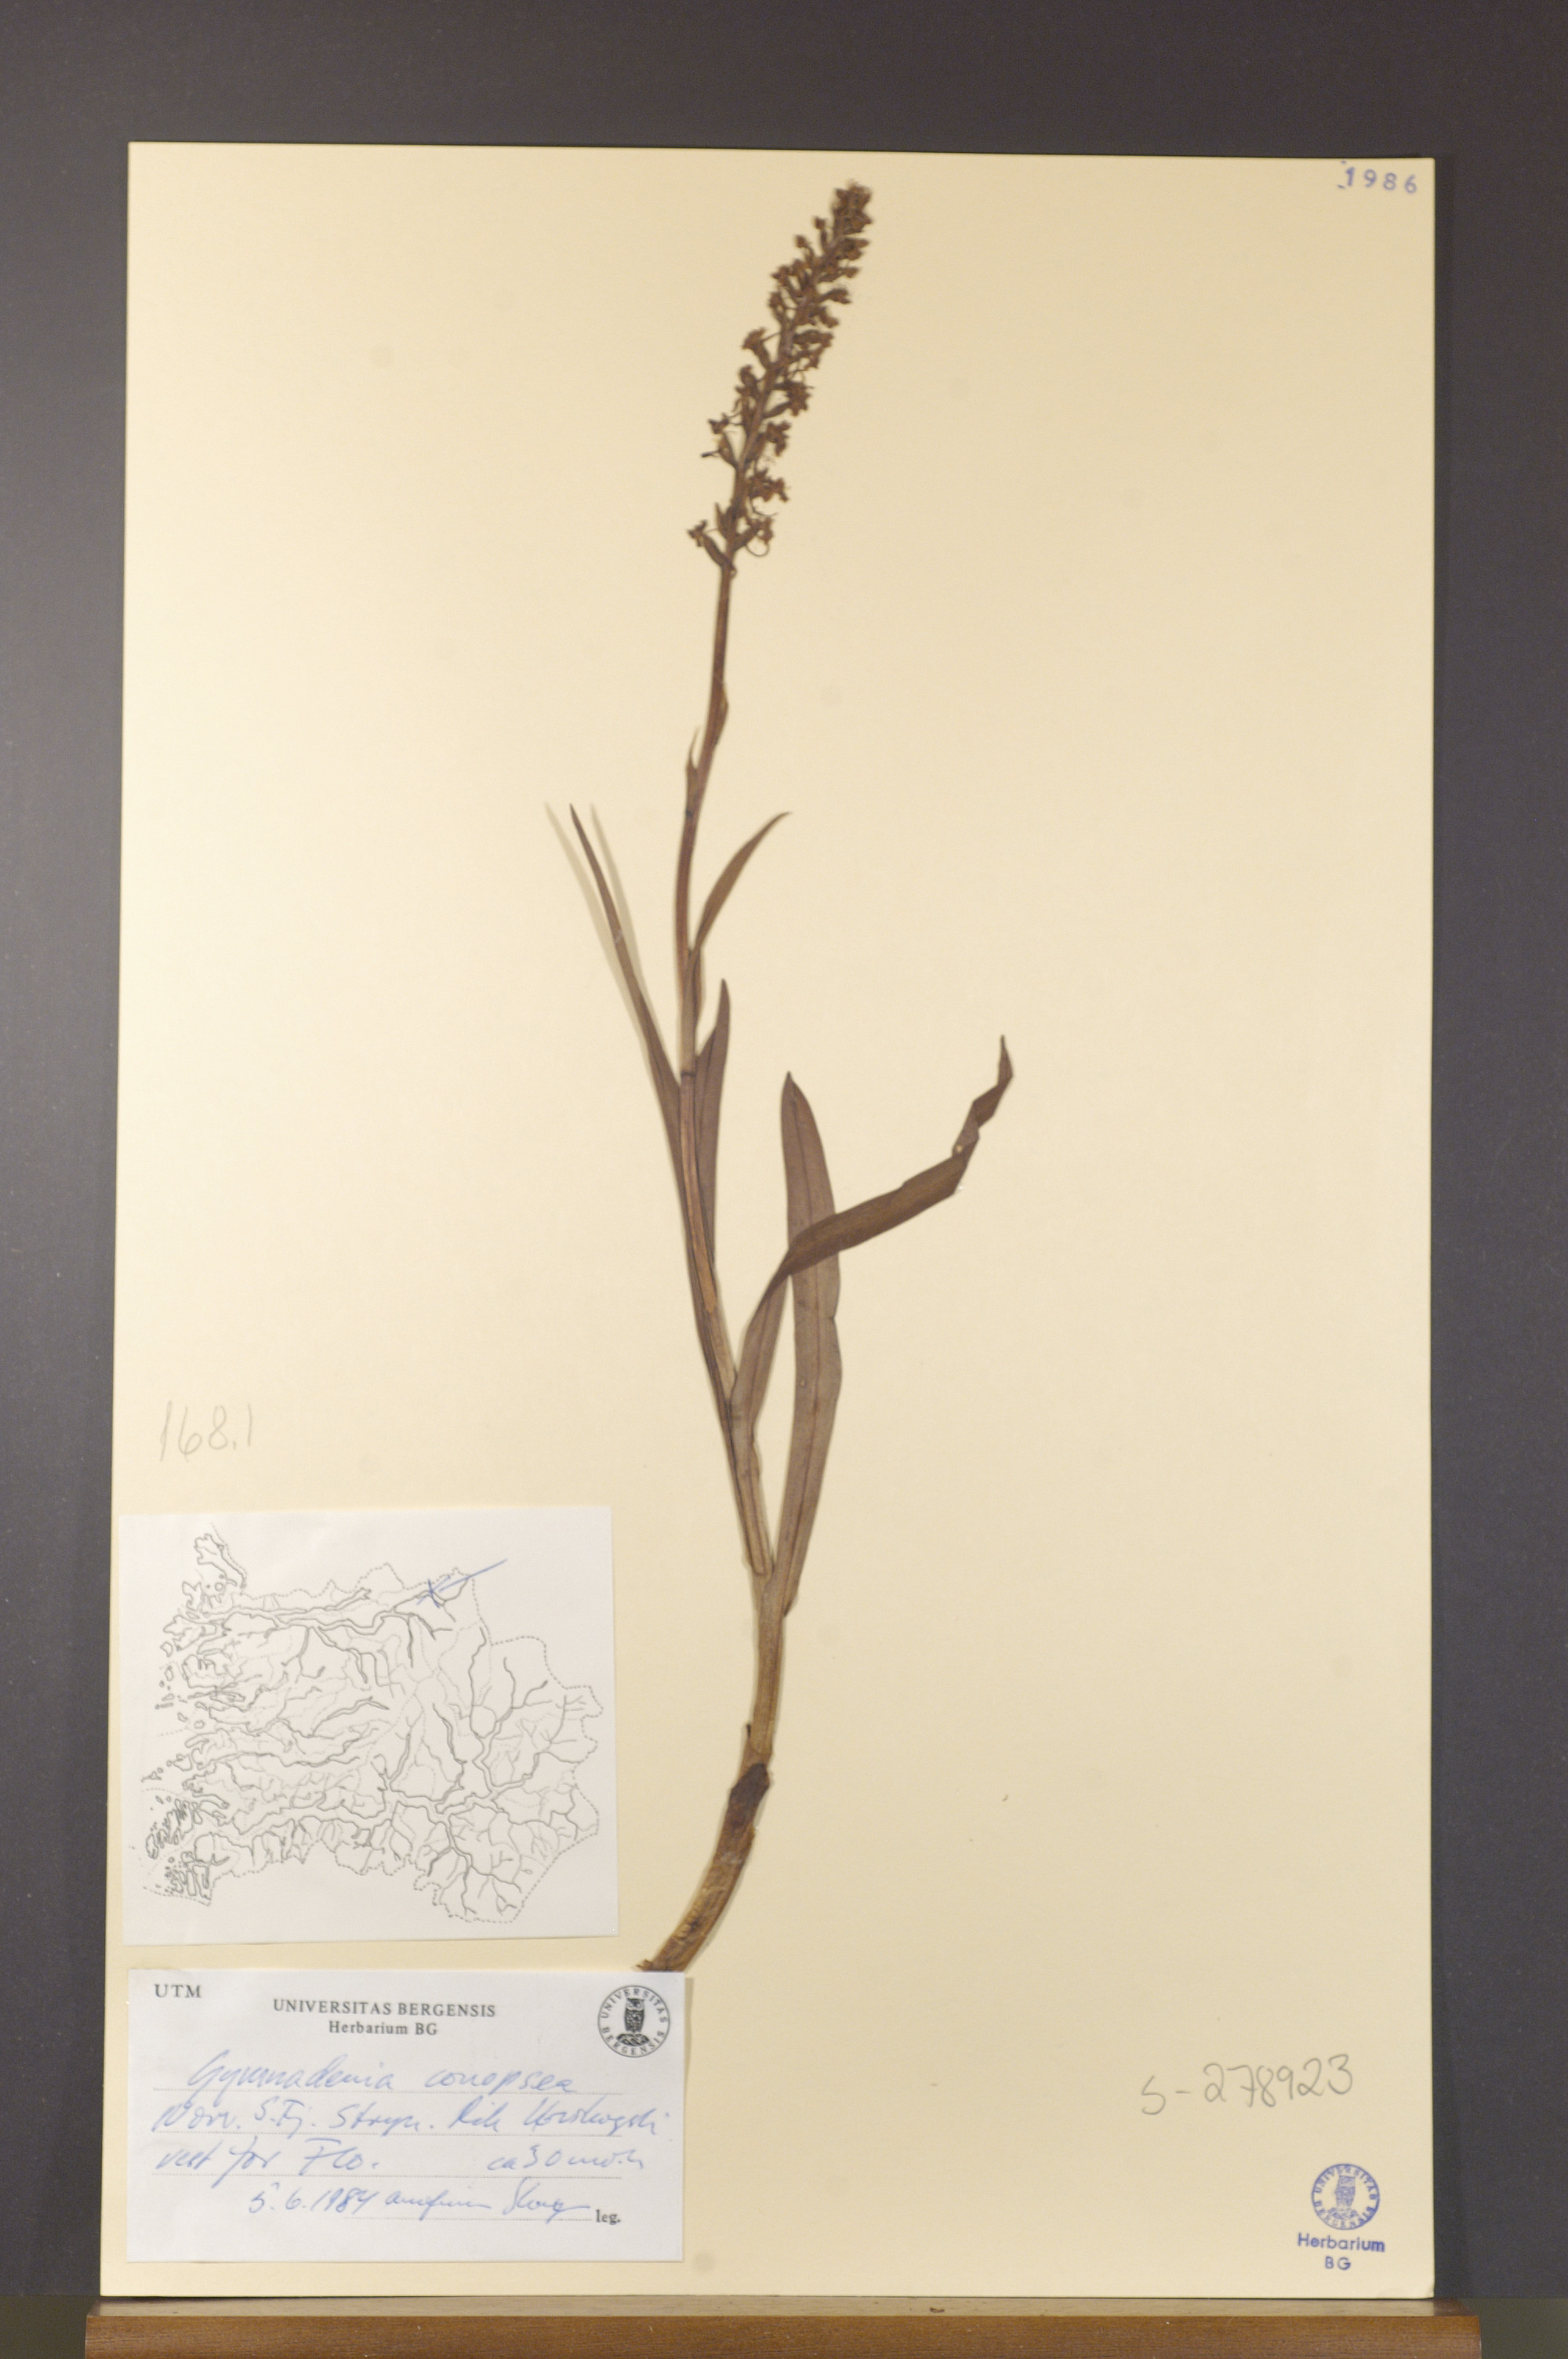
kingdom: Plantae
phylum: Tracheophyta
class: Liliopsida
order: Asparagales
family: Orchidaceae
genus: Gymnadenia
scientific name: Gymnadenia conopsea
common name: Fragrant orchid
